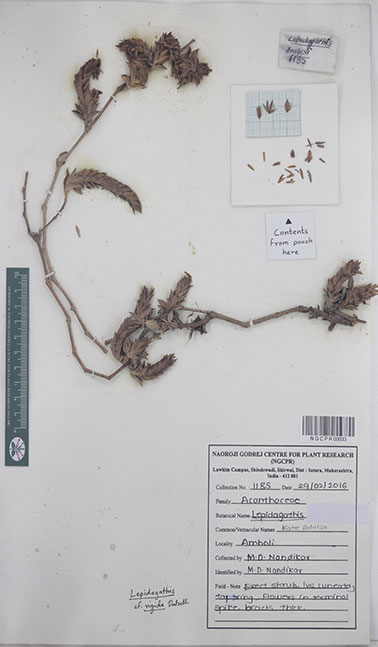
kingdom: Plantae
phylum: Tracheophyta
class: Magnoliopsida
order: Lamiales
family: Acanthaceae
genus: Lepidagathis
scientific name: Lepidagathis rigida
